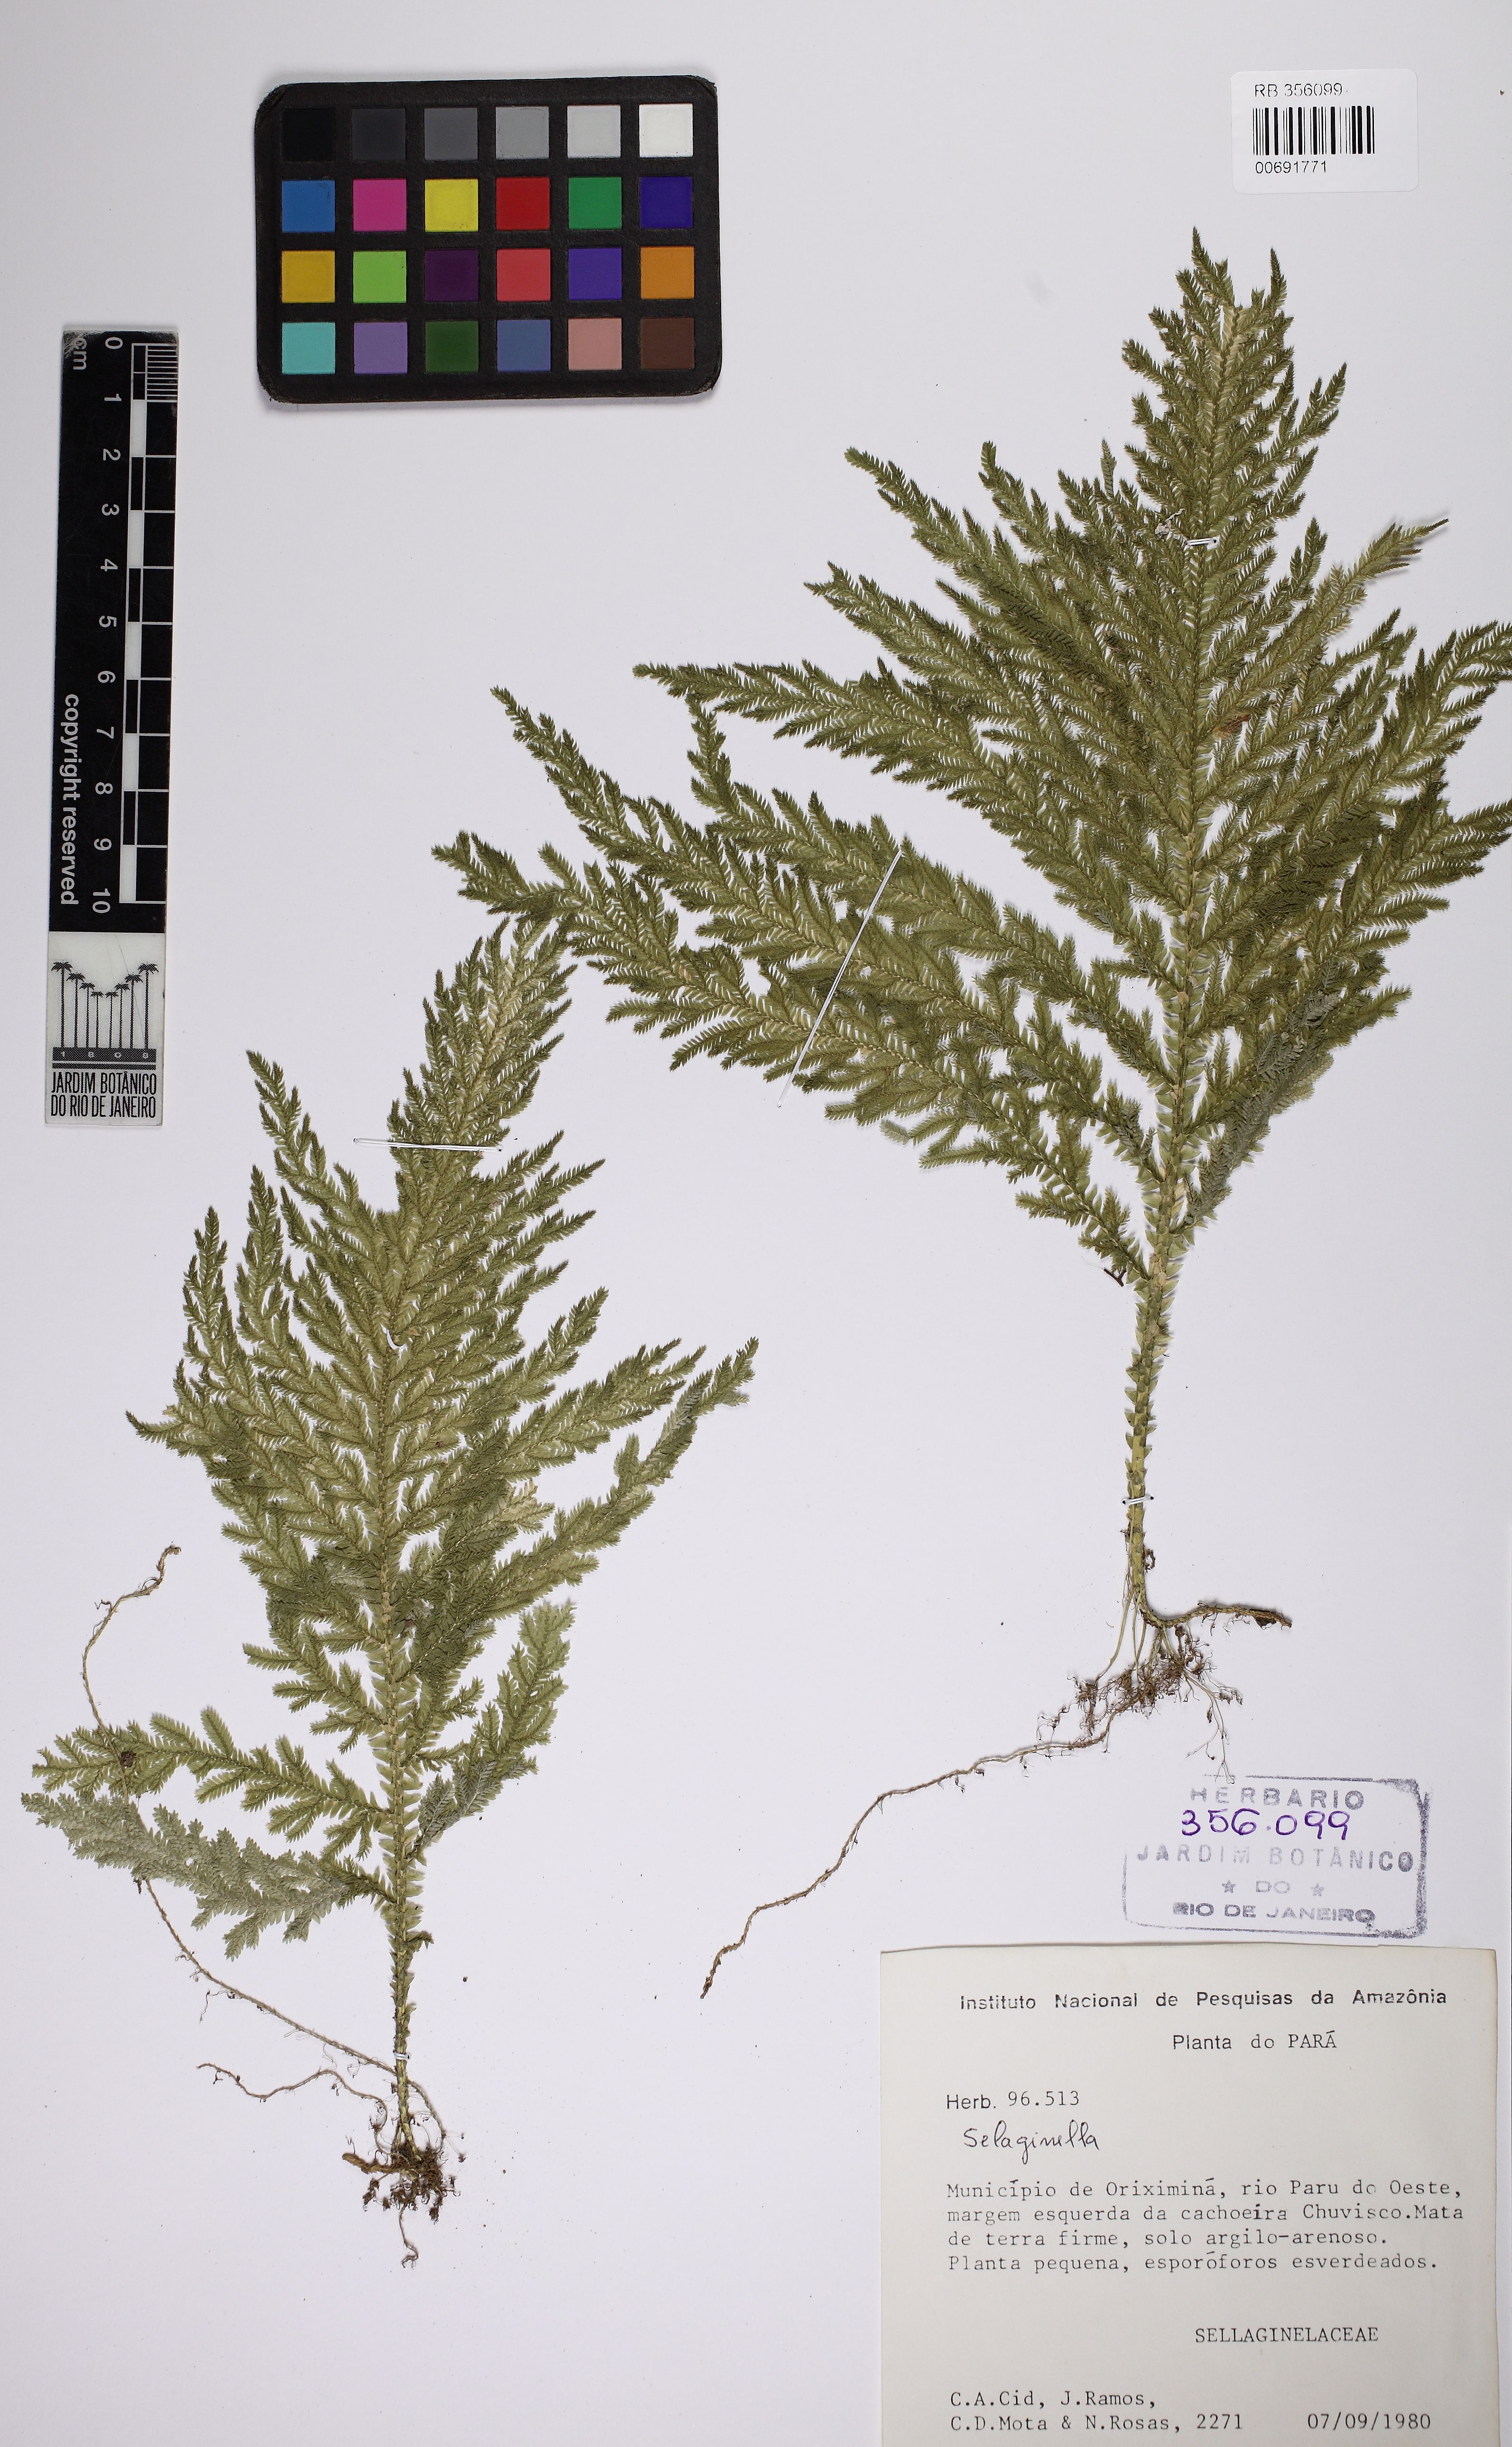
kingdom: Plantae
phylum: Tracheophyta
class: Lycopodiopsida
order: Selaginellales
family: Selaginellaceae
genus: Selaginella
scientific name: Selaginella radiata
